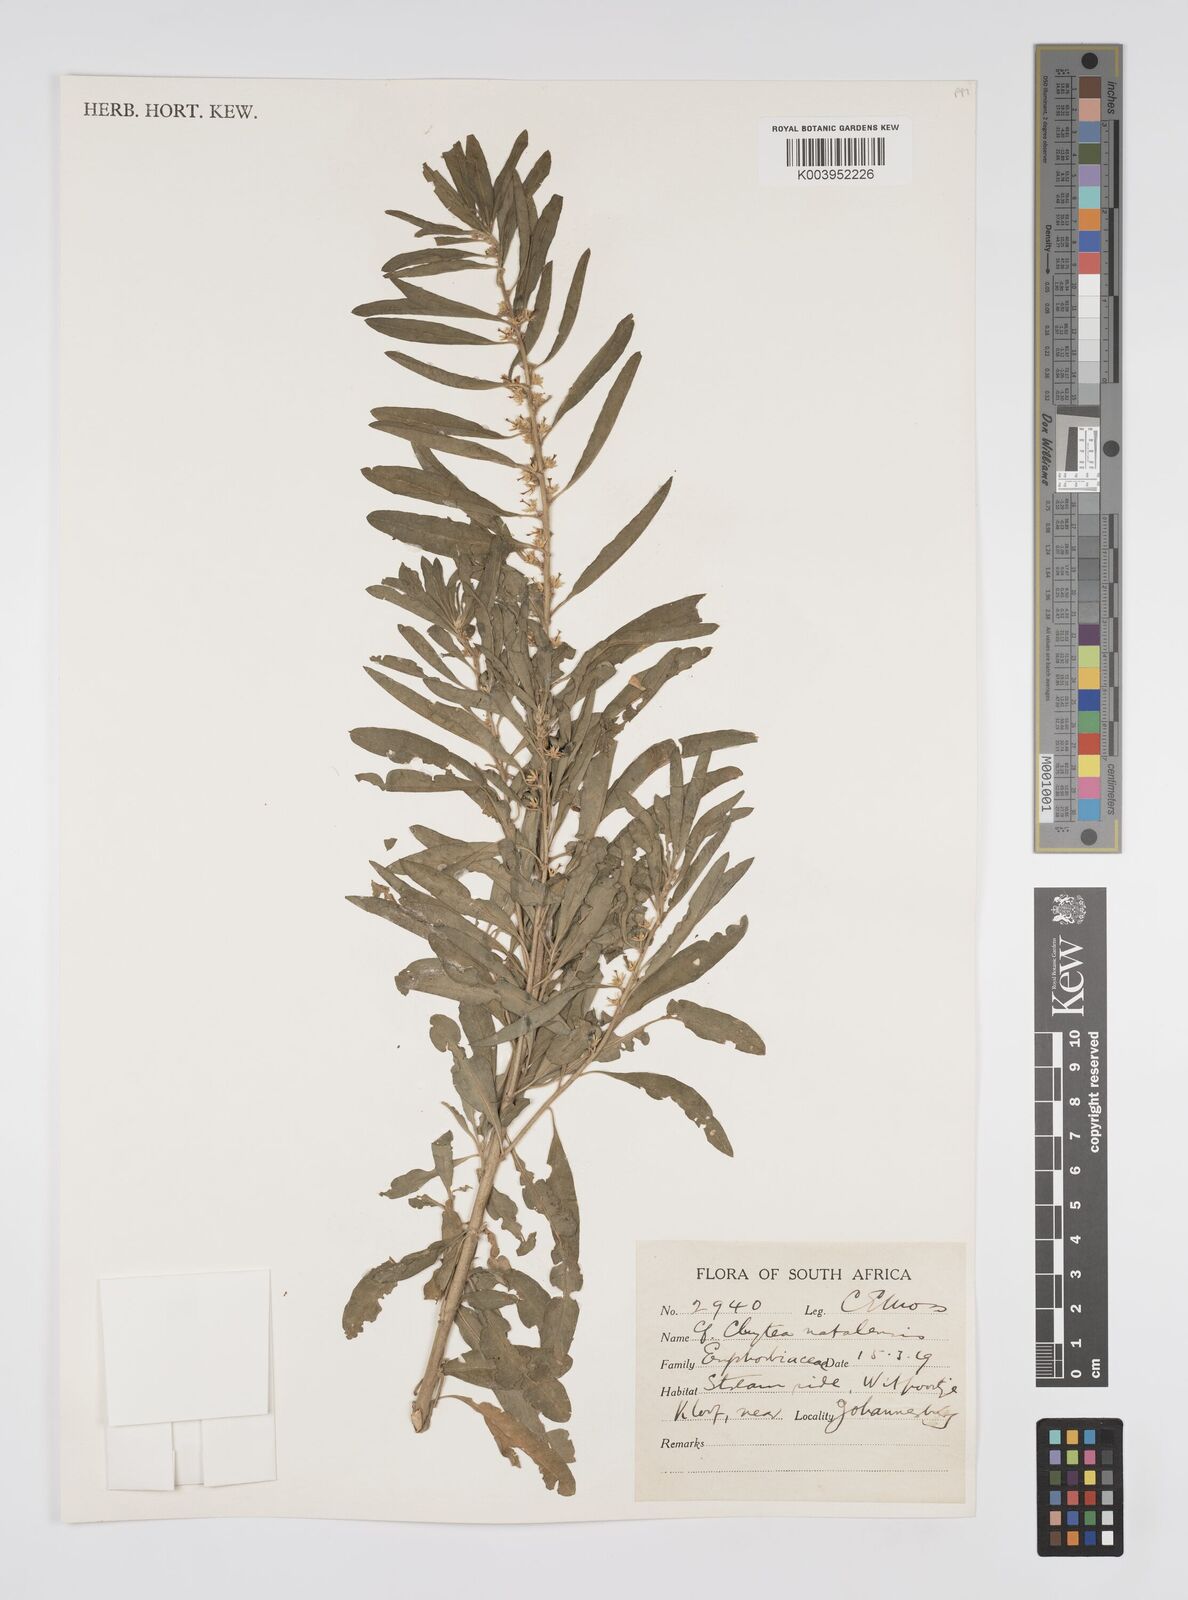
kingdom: Plantae
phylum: Tracheophyta
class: Magnoliopsida
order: Malpighiales
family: Peraceae
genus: Clutia
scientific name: Clutia natalensis
